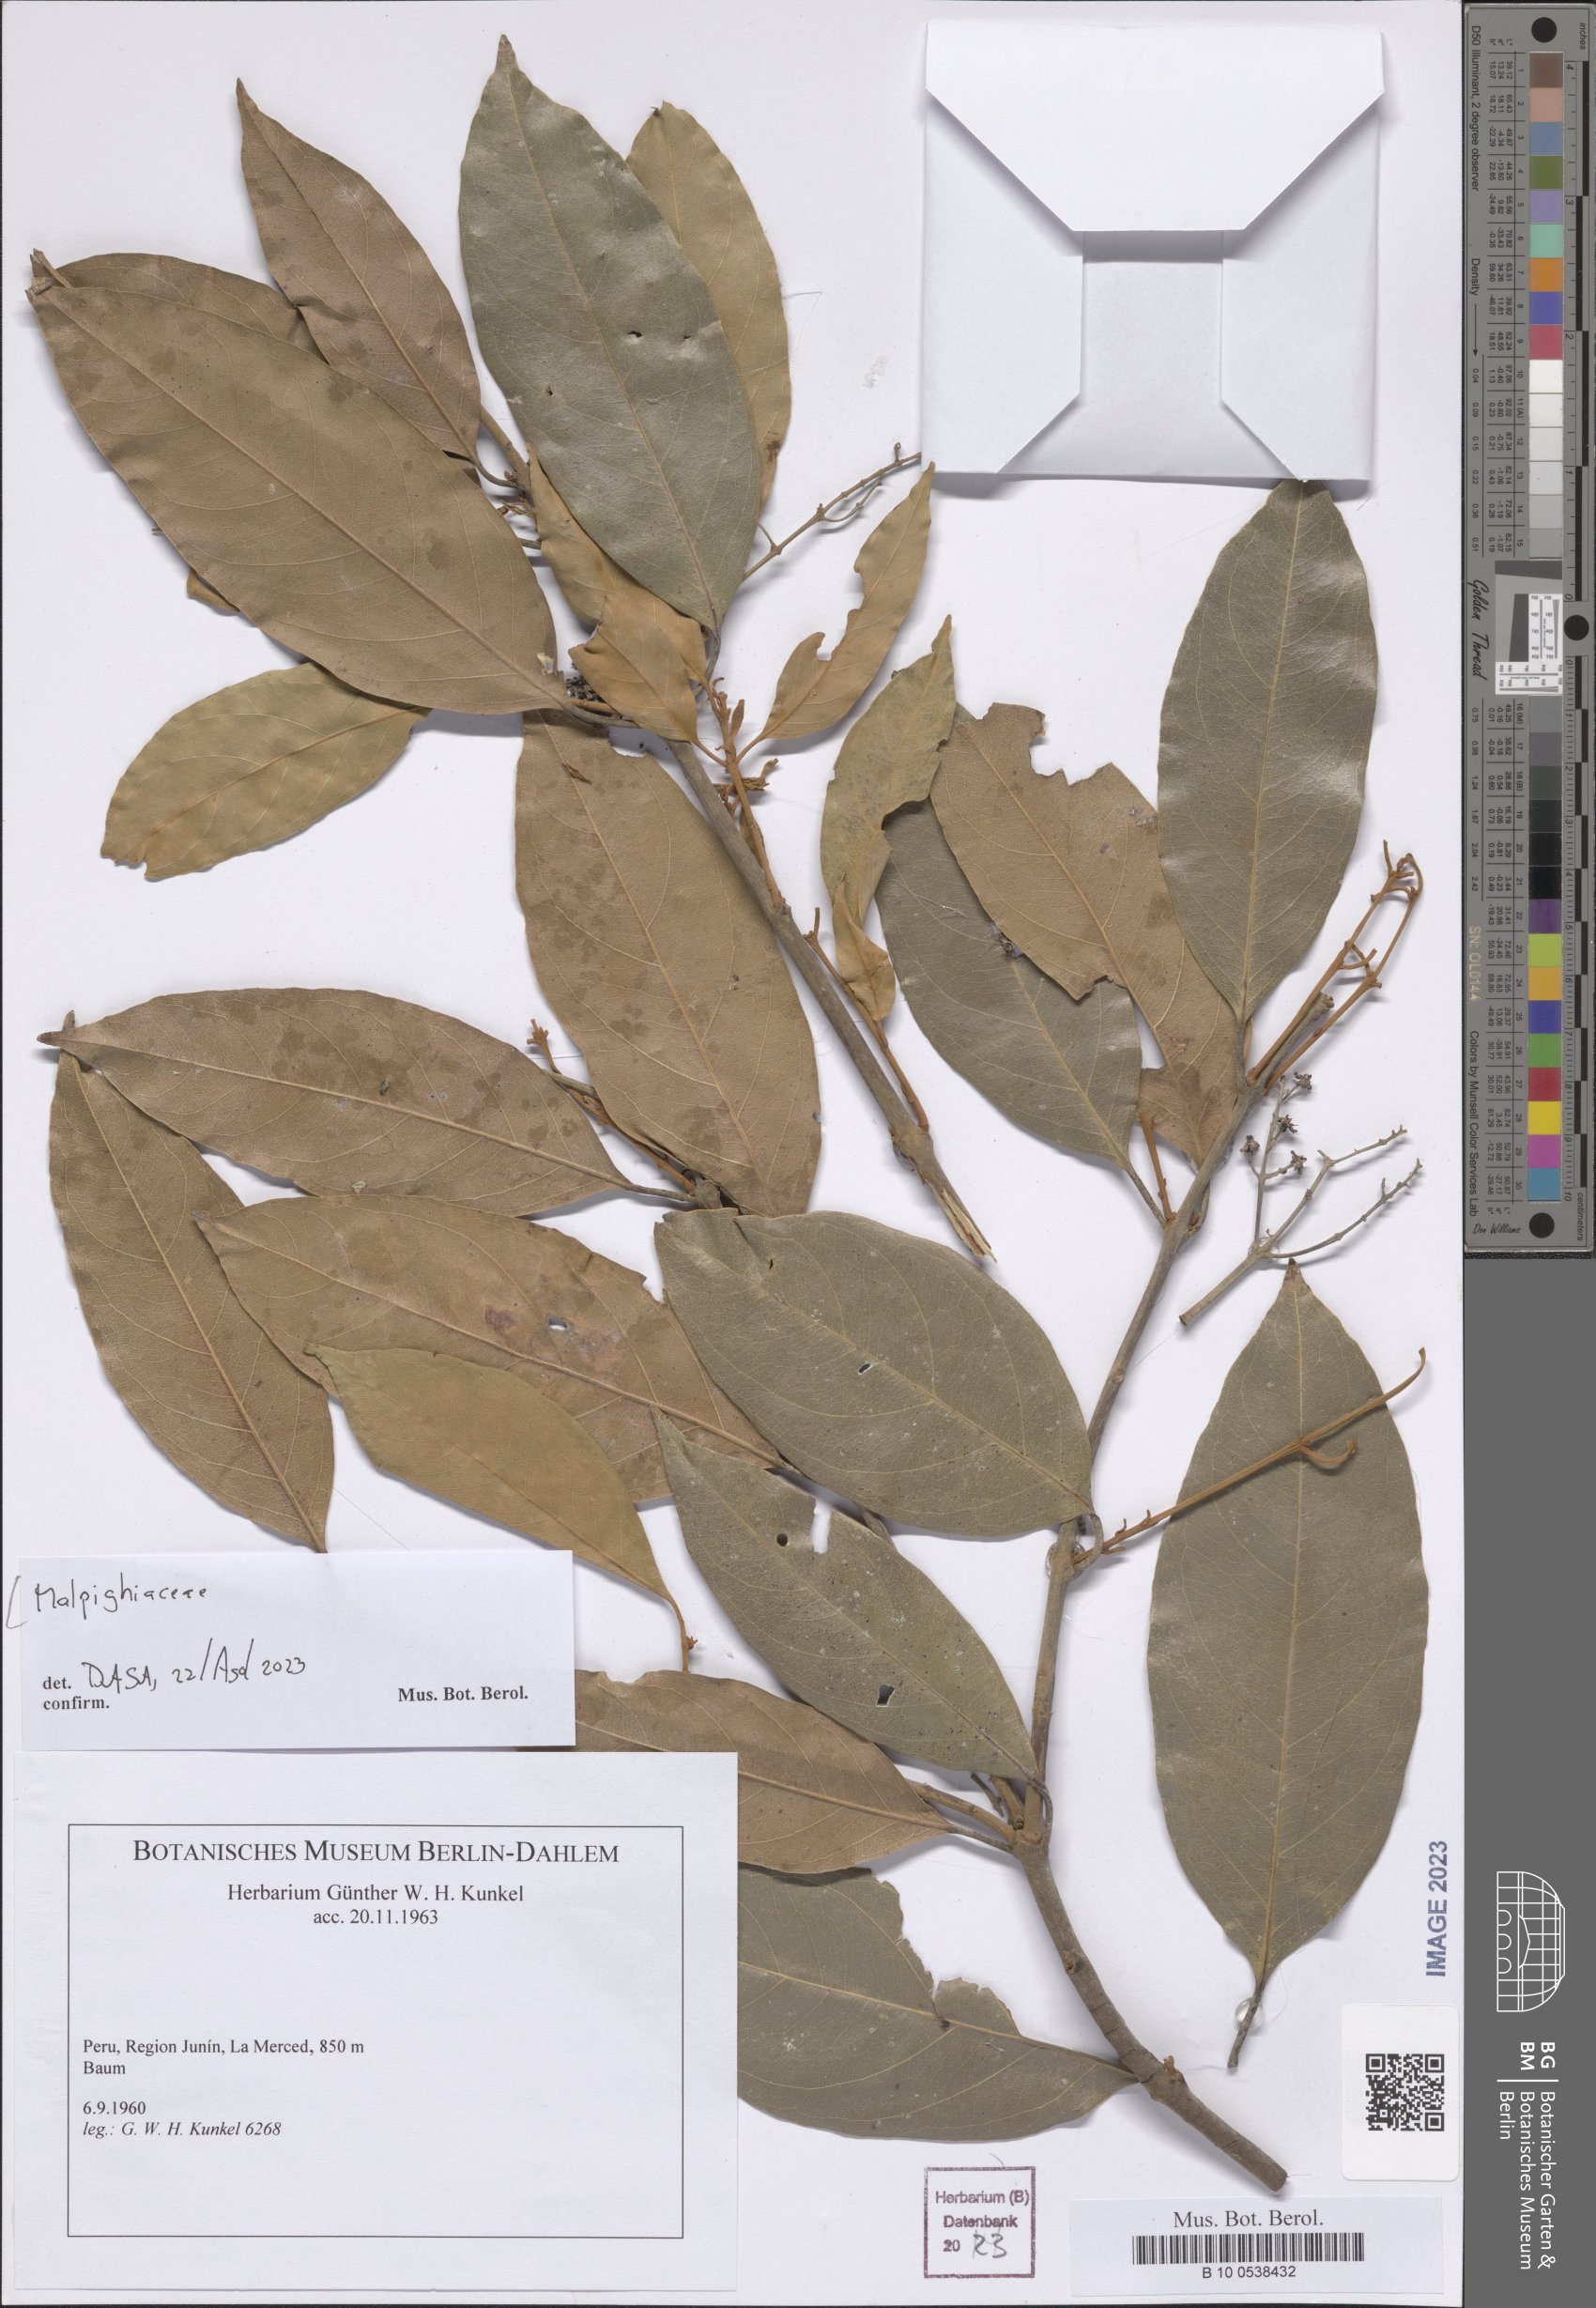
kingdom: Plantae
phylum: Tracheophyta
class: Magnoliopsida
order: Malpighiales
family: Malpighiaceae
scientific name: Malpighiaceae
